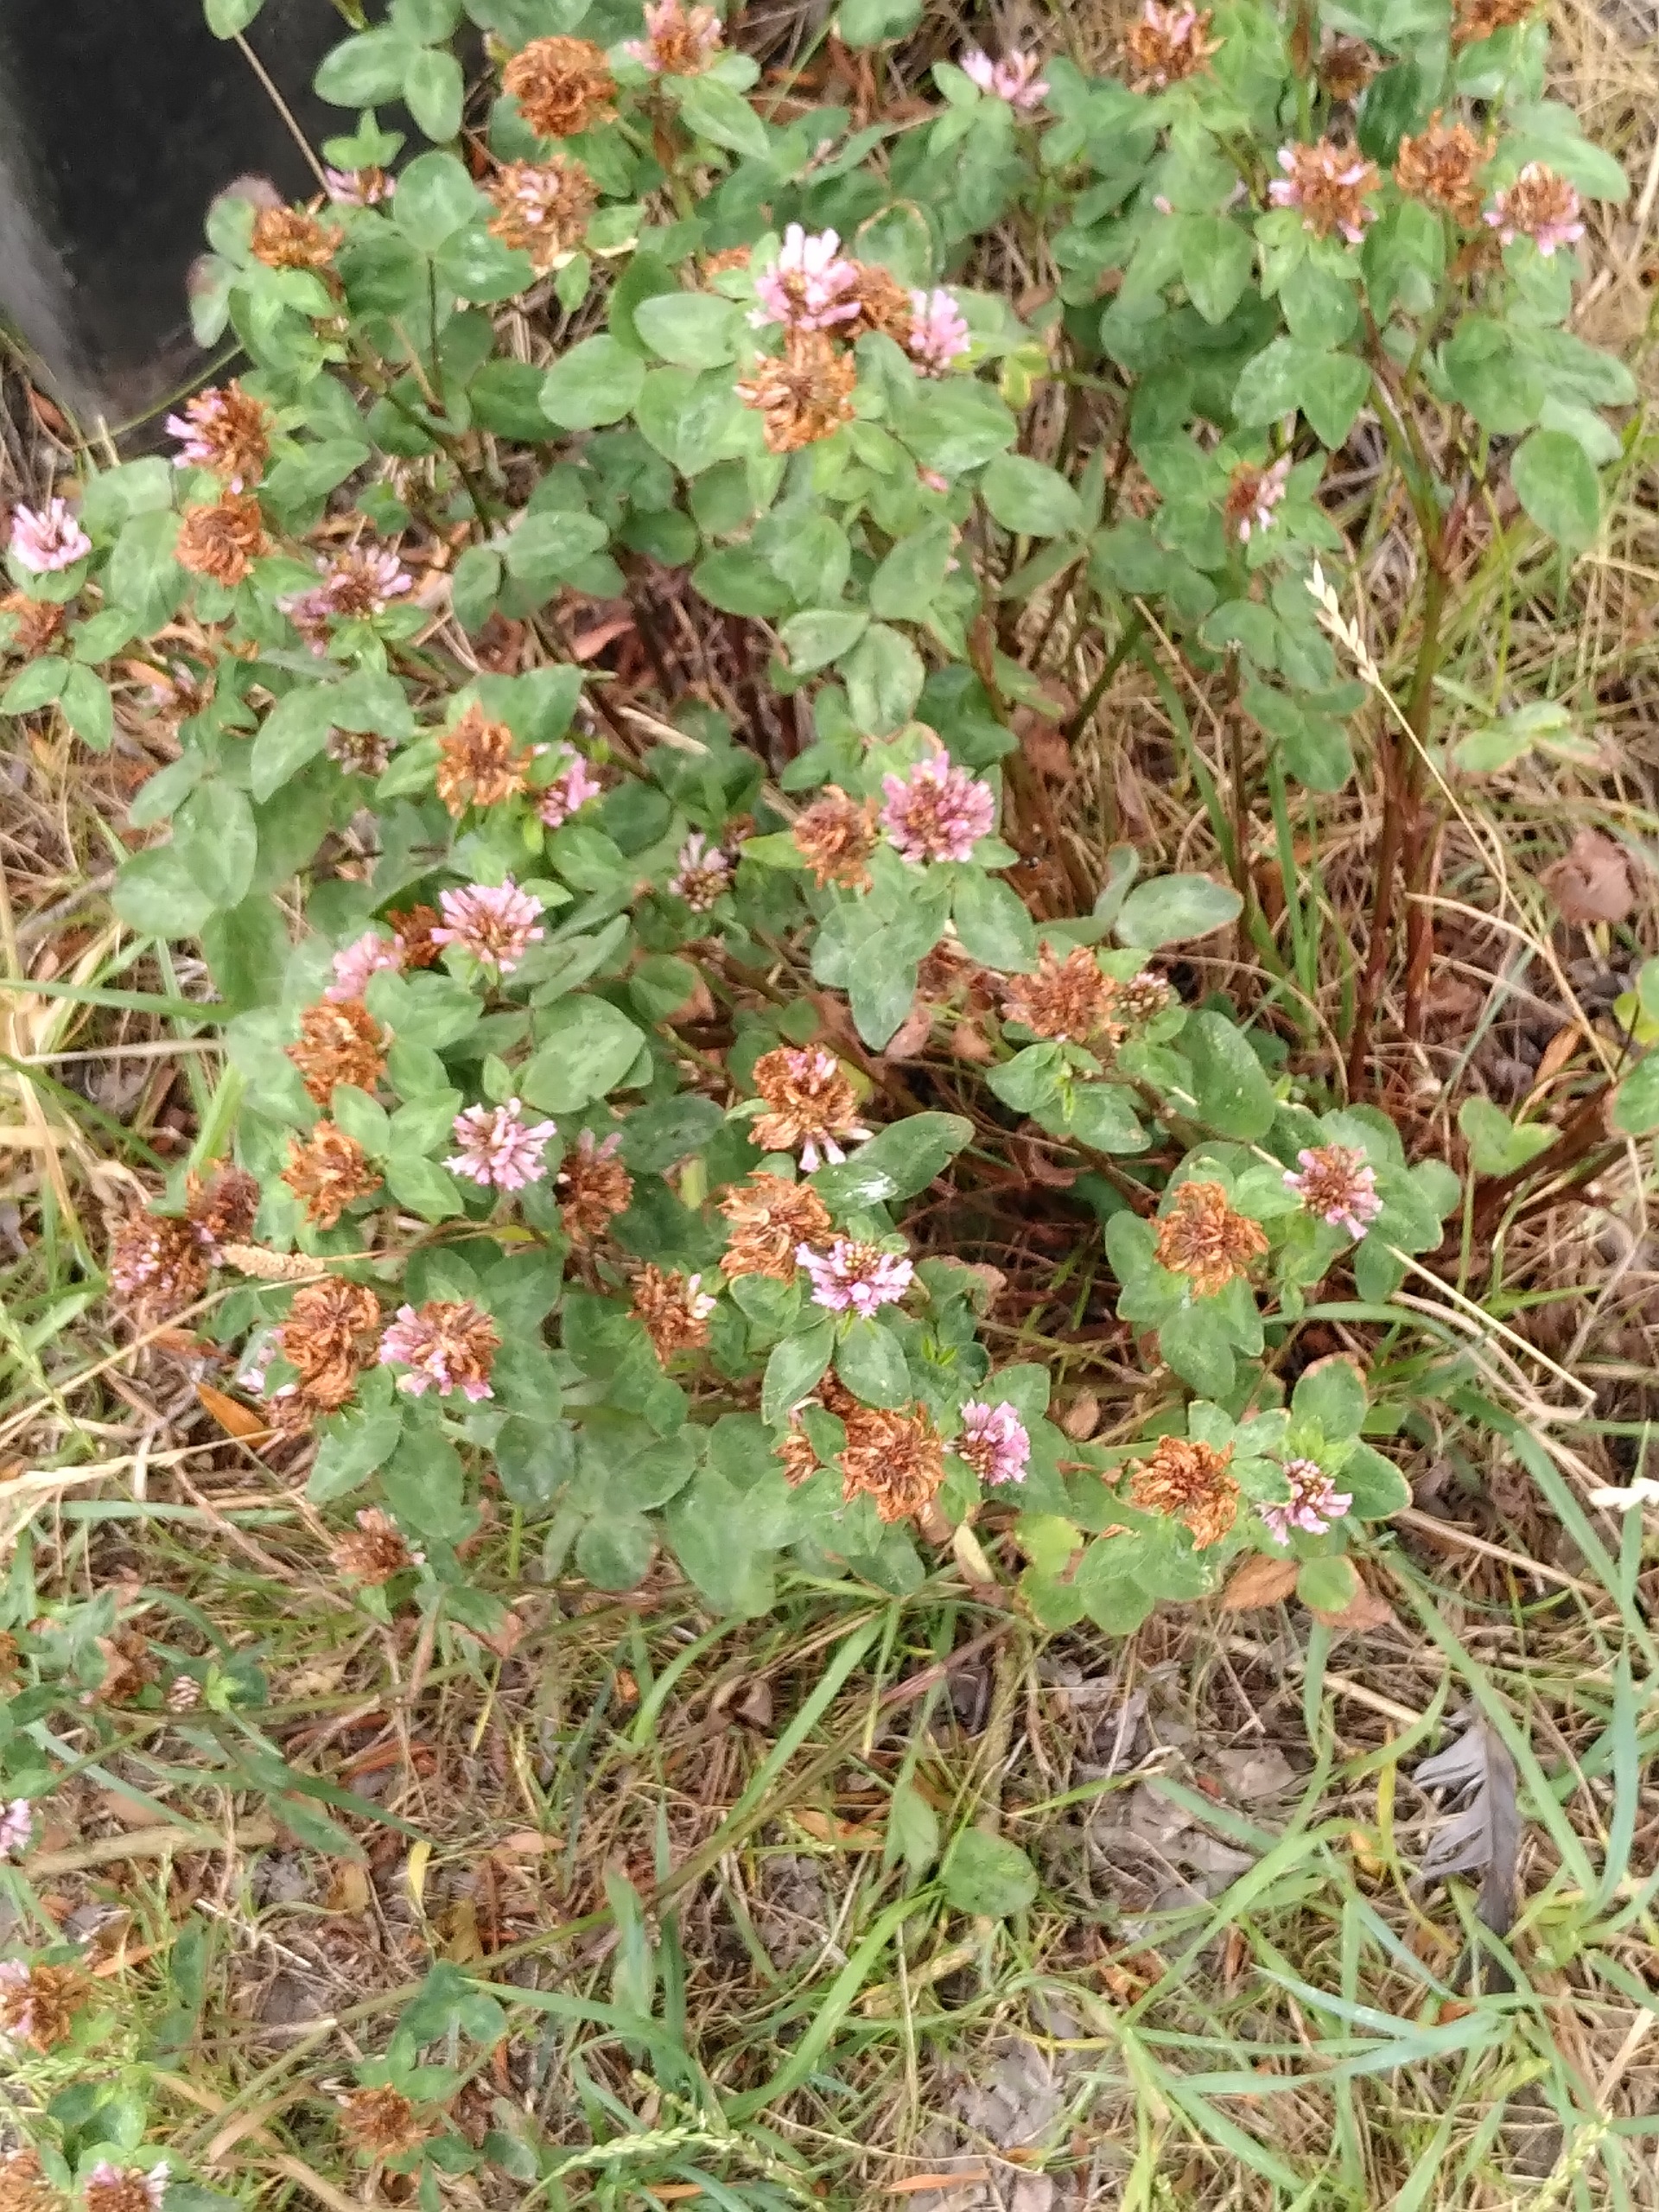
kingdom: Plantae
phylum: Tracheophyta
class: Magnoliopsida
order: Fabales
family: Fabaceae
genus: Trifolium
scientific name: Trifolium pratense
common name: Rød-kløver
